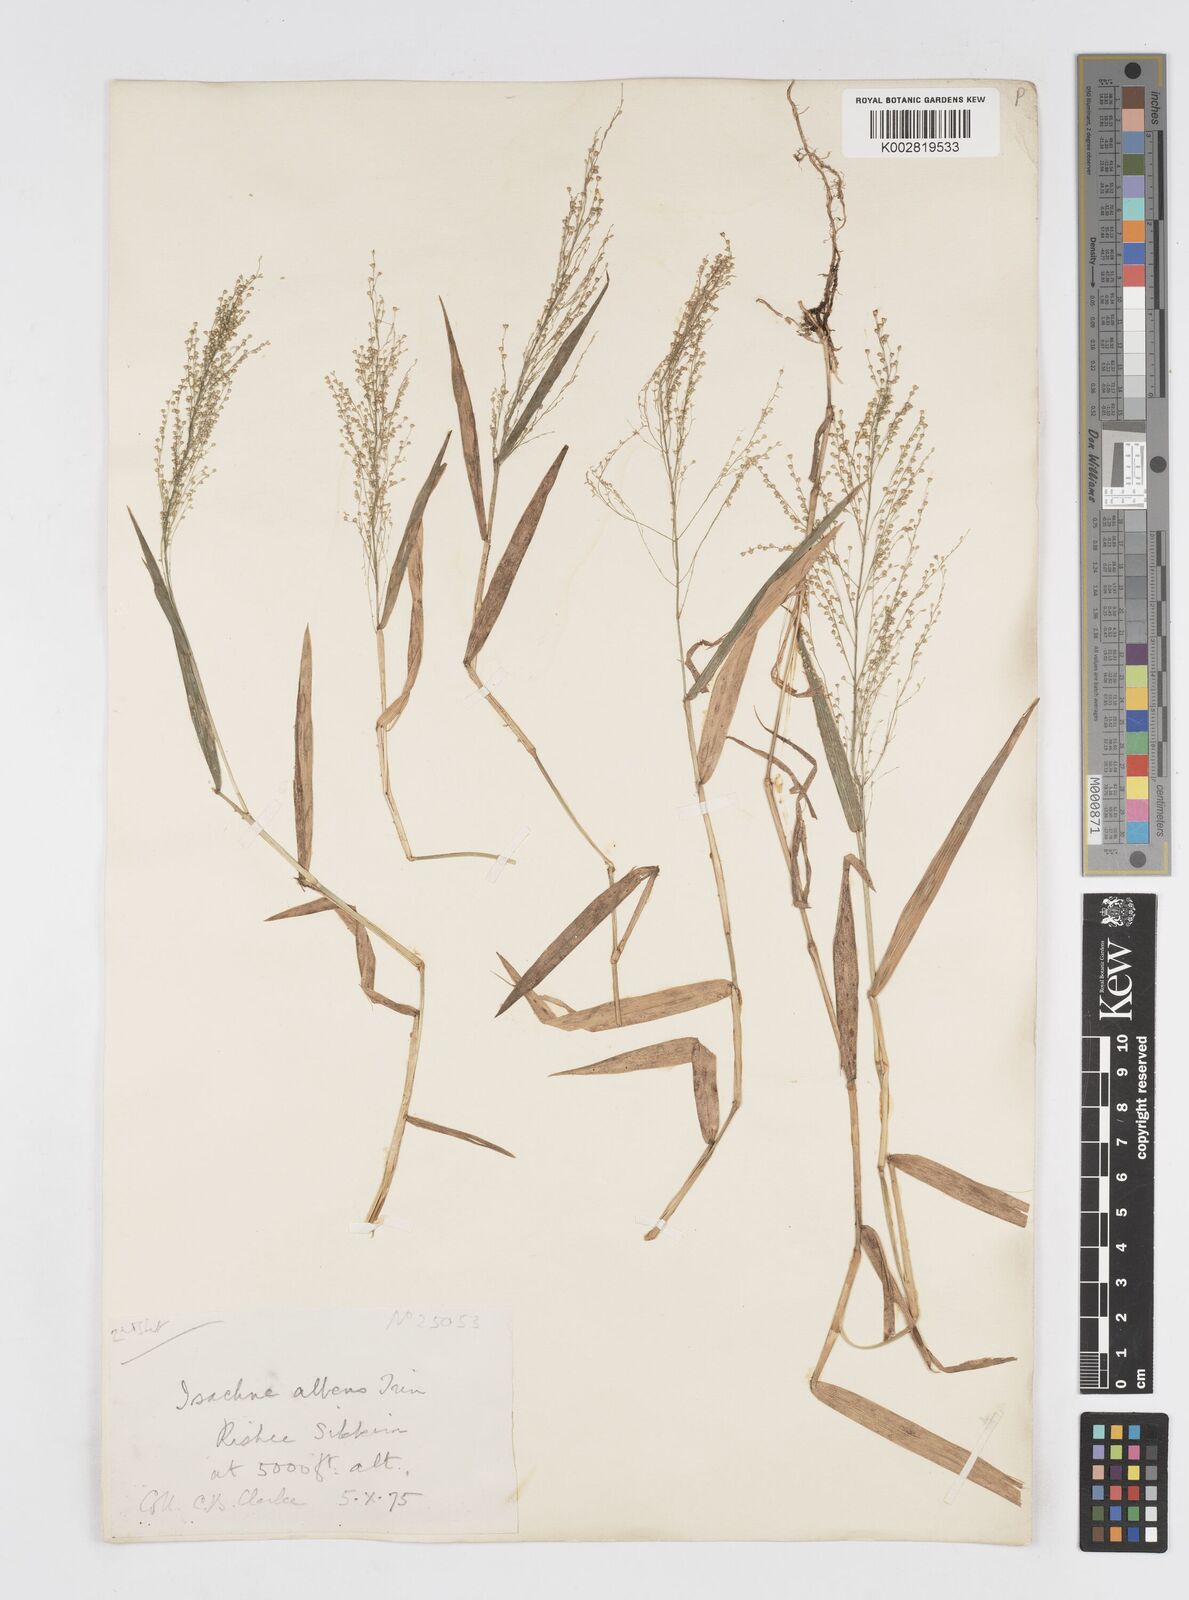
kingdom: Plantae
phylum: Tracheophyta
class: Liliopsida
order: Poales
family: Poaceae
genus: Isachne
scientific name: Isachne albens
